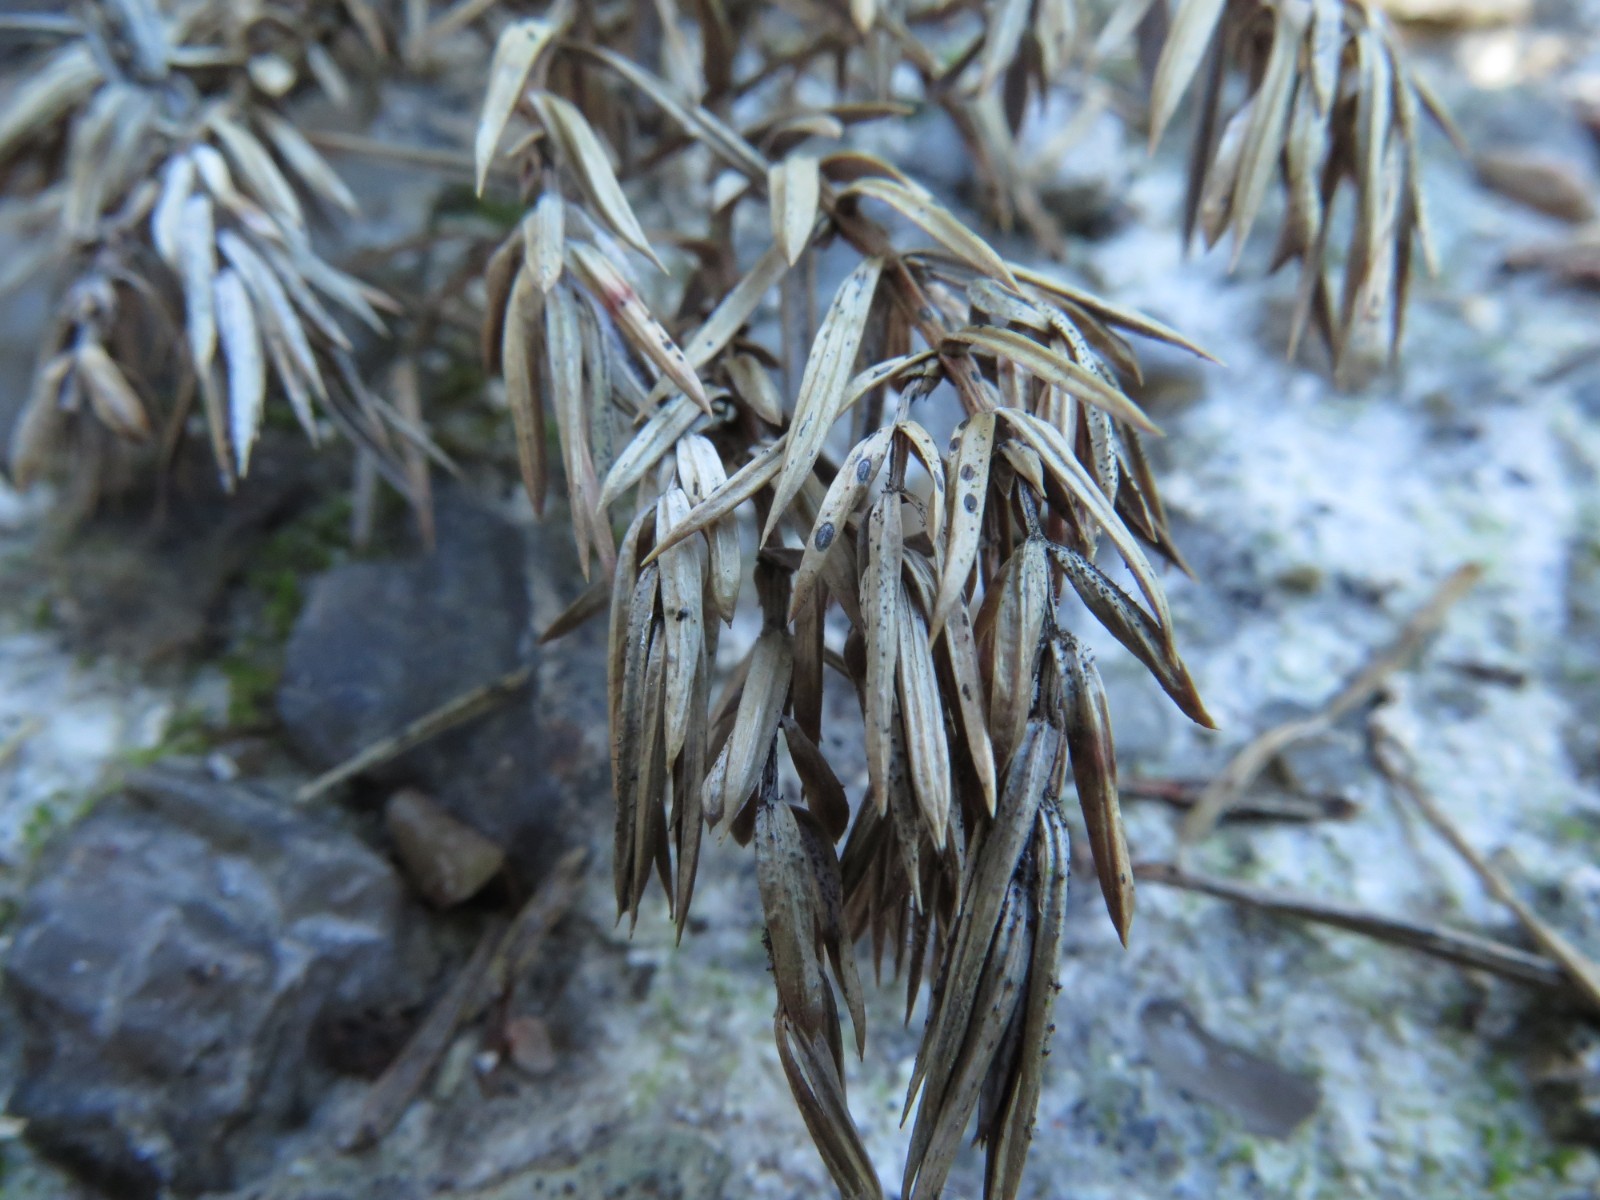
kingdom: Fungi
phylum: Ascomycota
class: Leotiomycetes
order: Rhytismatales
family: Rhytismataceae
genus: Lophodermium
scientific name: Lophodermium juniperinum
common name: ene-fureplet
